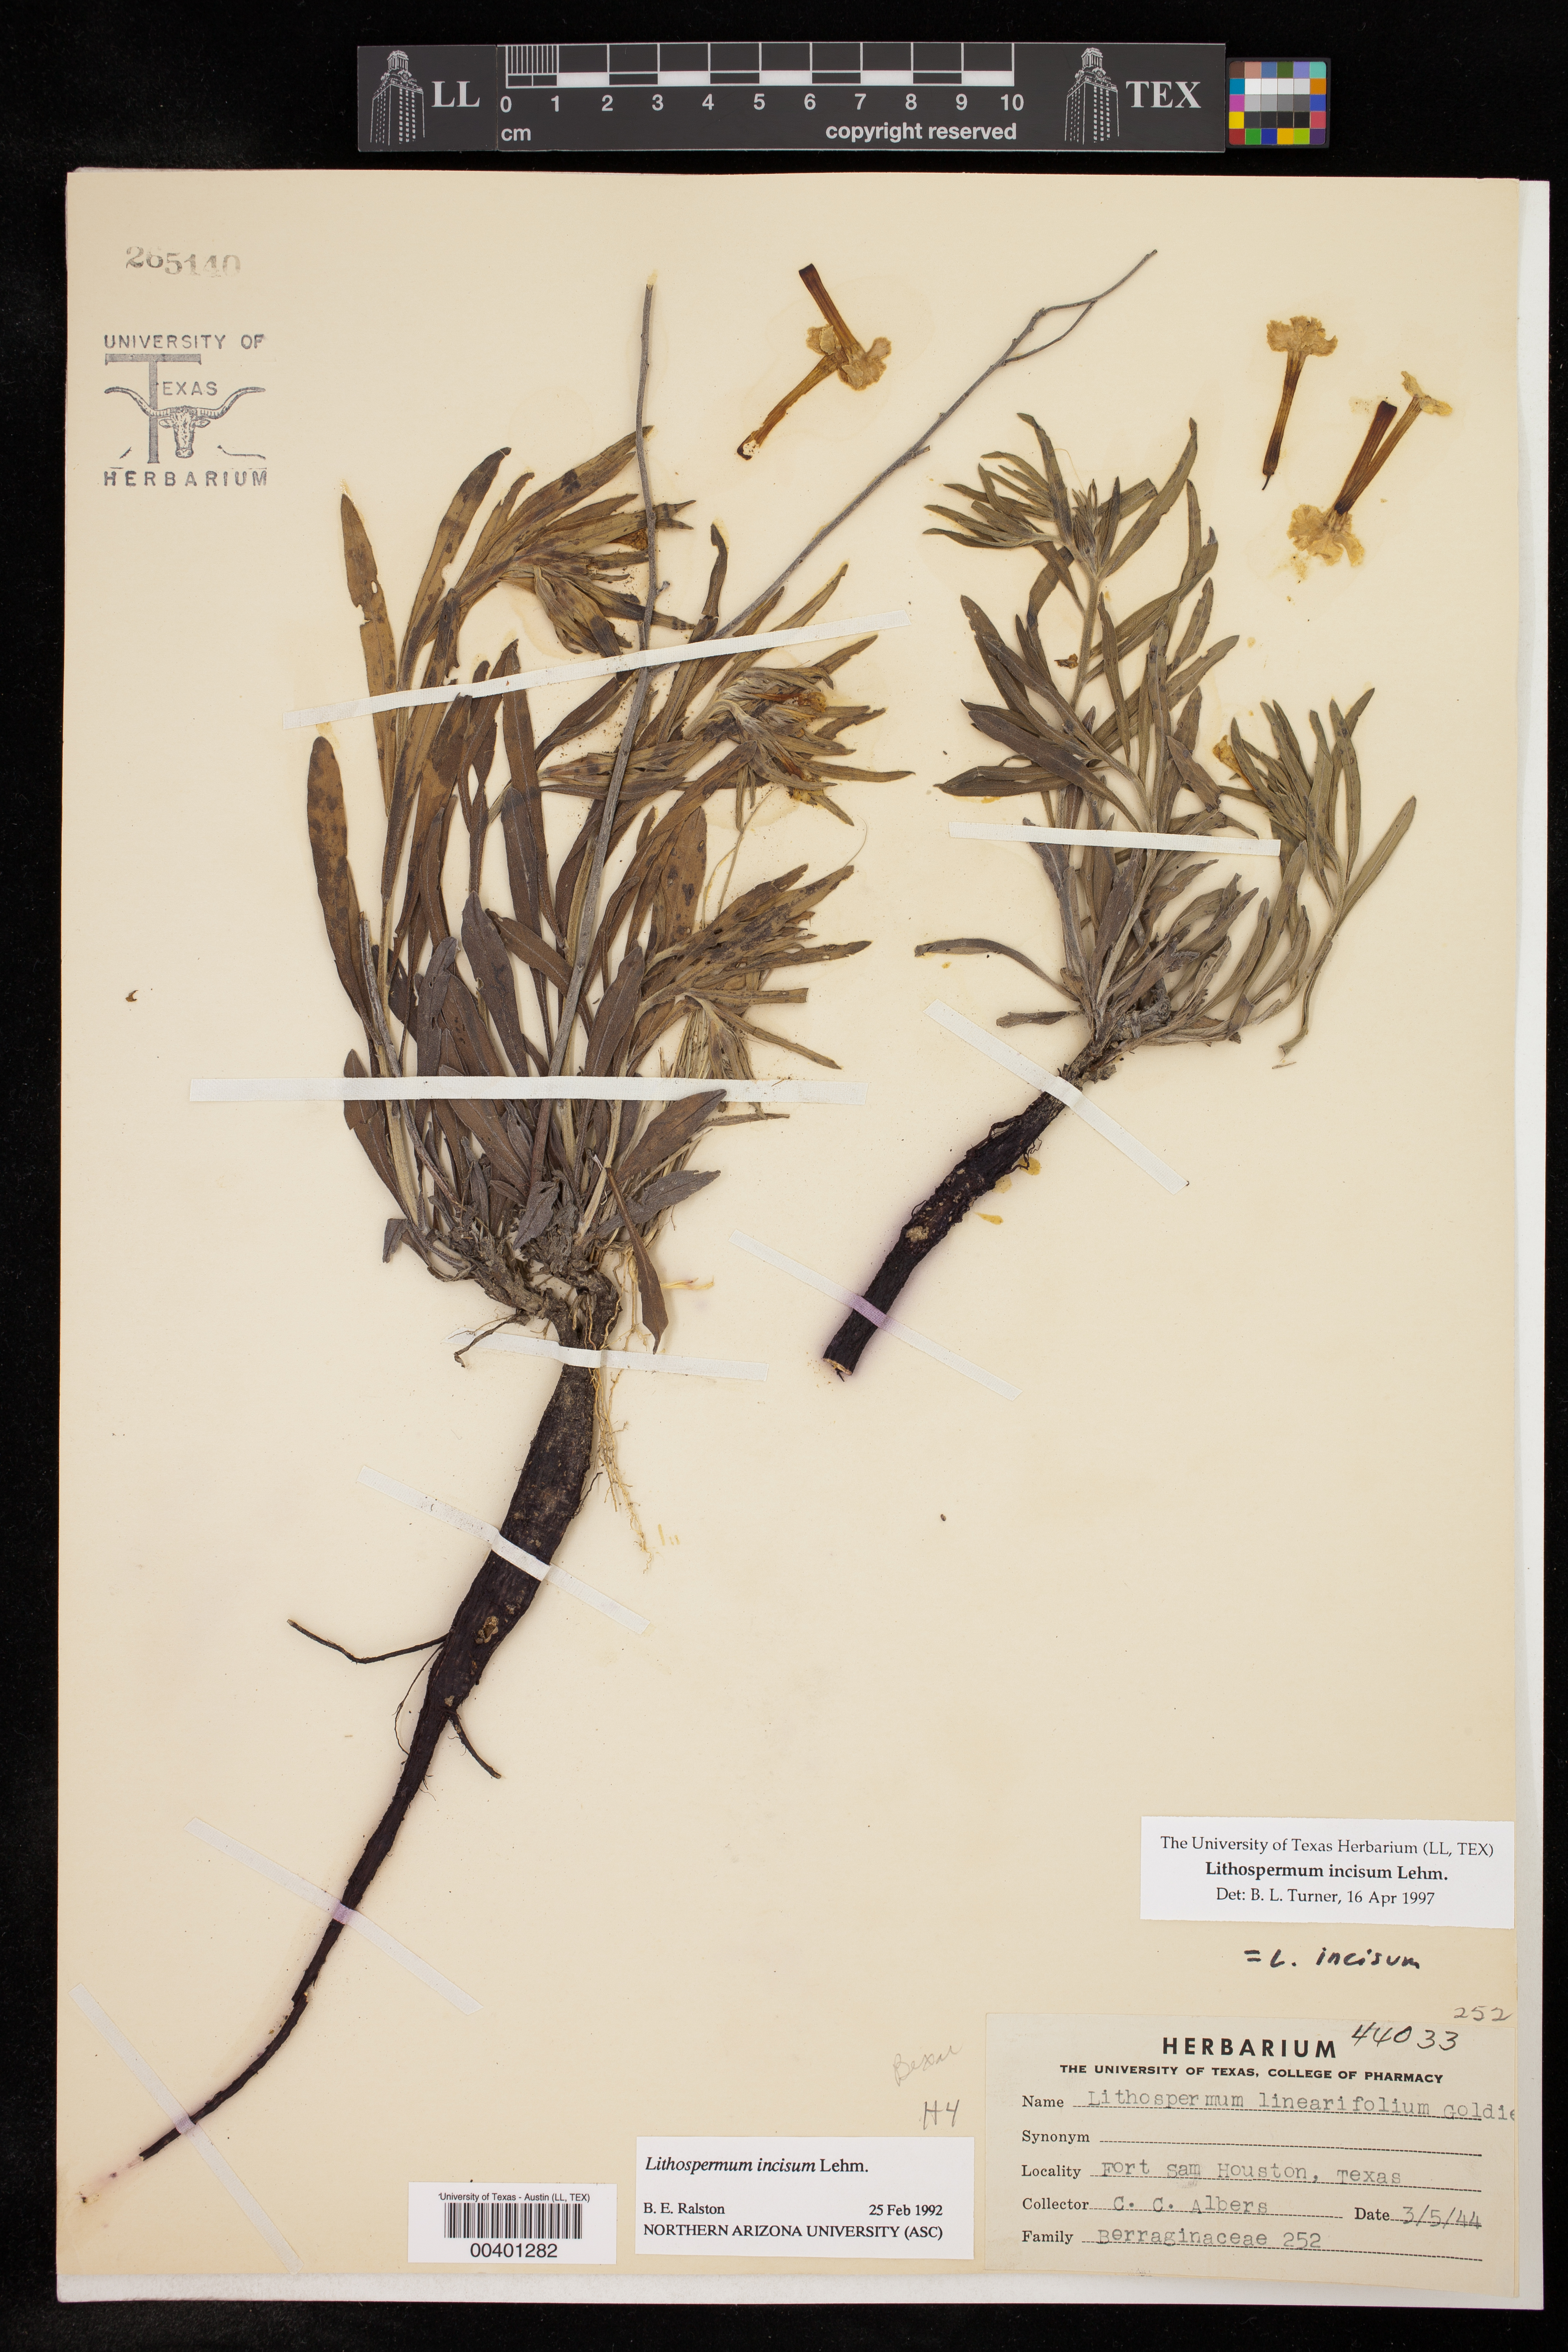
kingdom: Plantae
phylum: Tracheophyta
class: Magnoliopsida
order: Boraginales
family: Boraginaceae
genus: Lithospermum
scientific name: Lithospermum incisum
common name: Fringed gromwell
